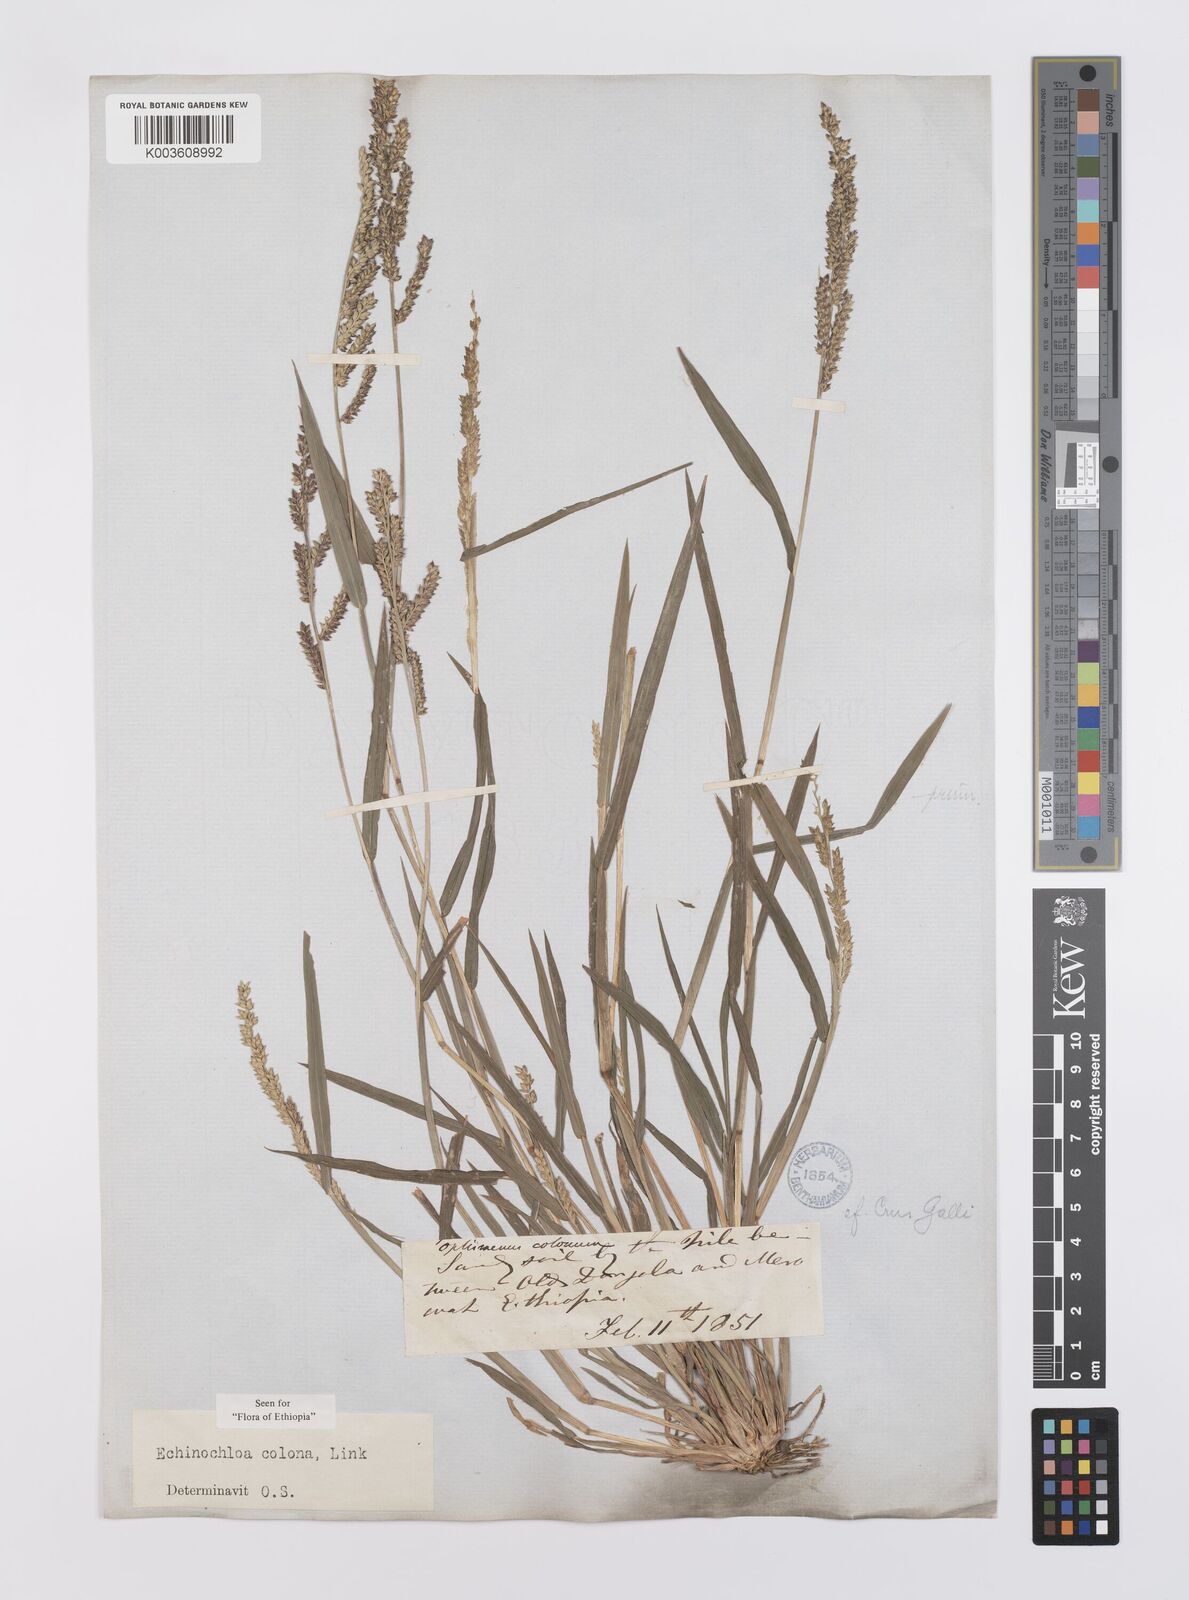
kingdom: Plantae
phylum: Tracheophyta
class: Liliopsida
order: Poales
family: Poaceae
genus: Echinochloa
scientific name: Echinochloa colonum
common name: Jungle rice
